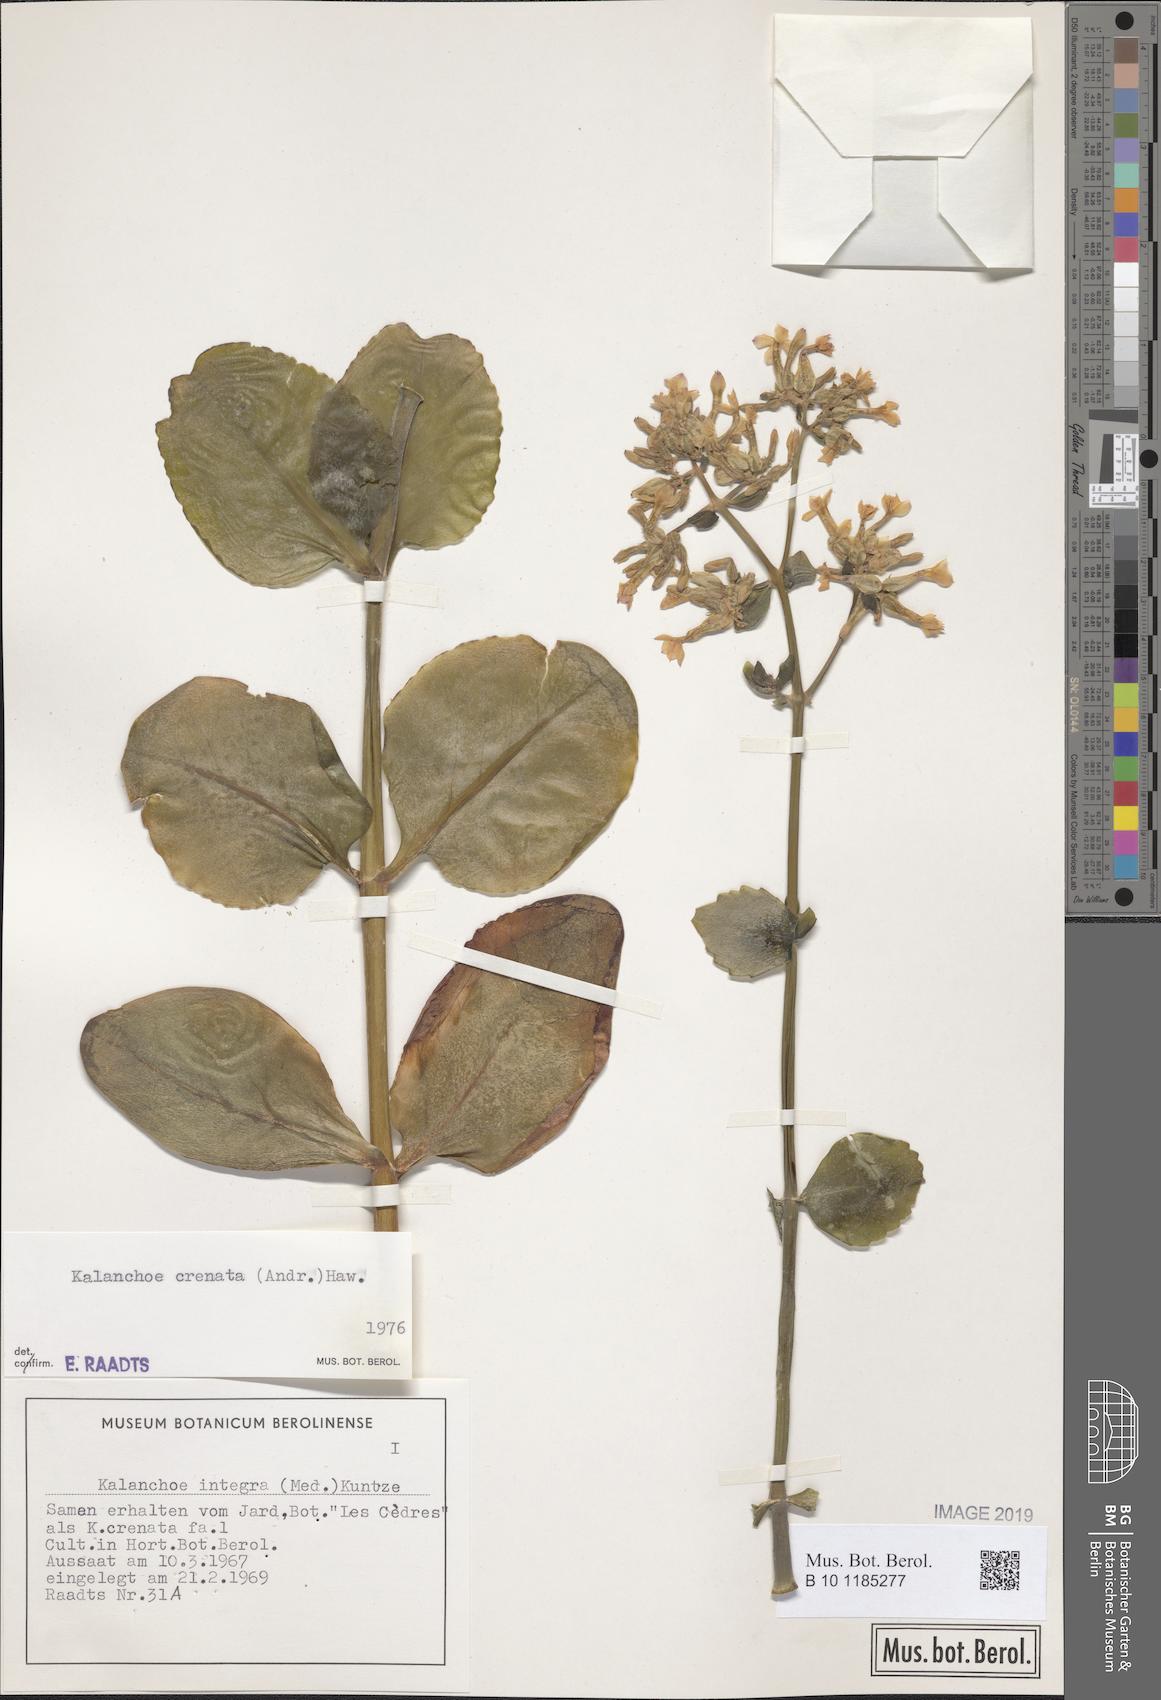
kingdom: Plantae
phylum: Tracheophyta
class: Magnoliopsida
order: Saxifragales
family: Crassulaceae
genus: Kalanchoe
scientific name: Kalanchoe crenata
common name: Neverdie
